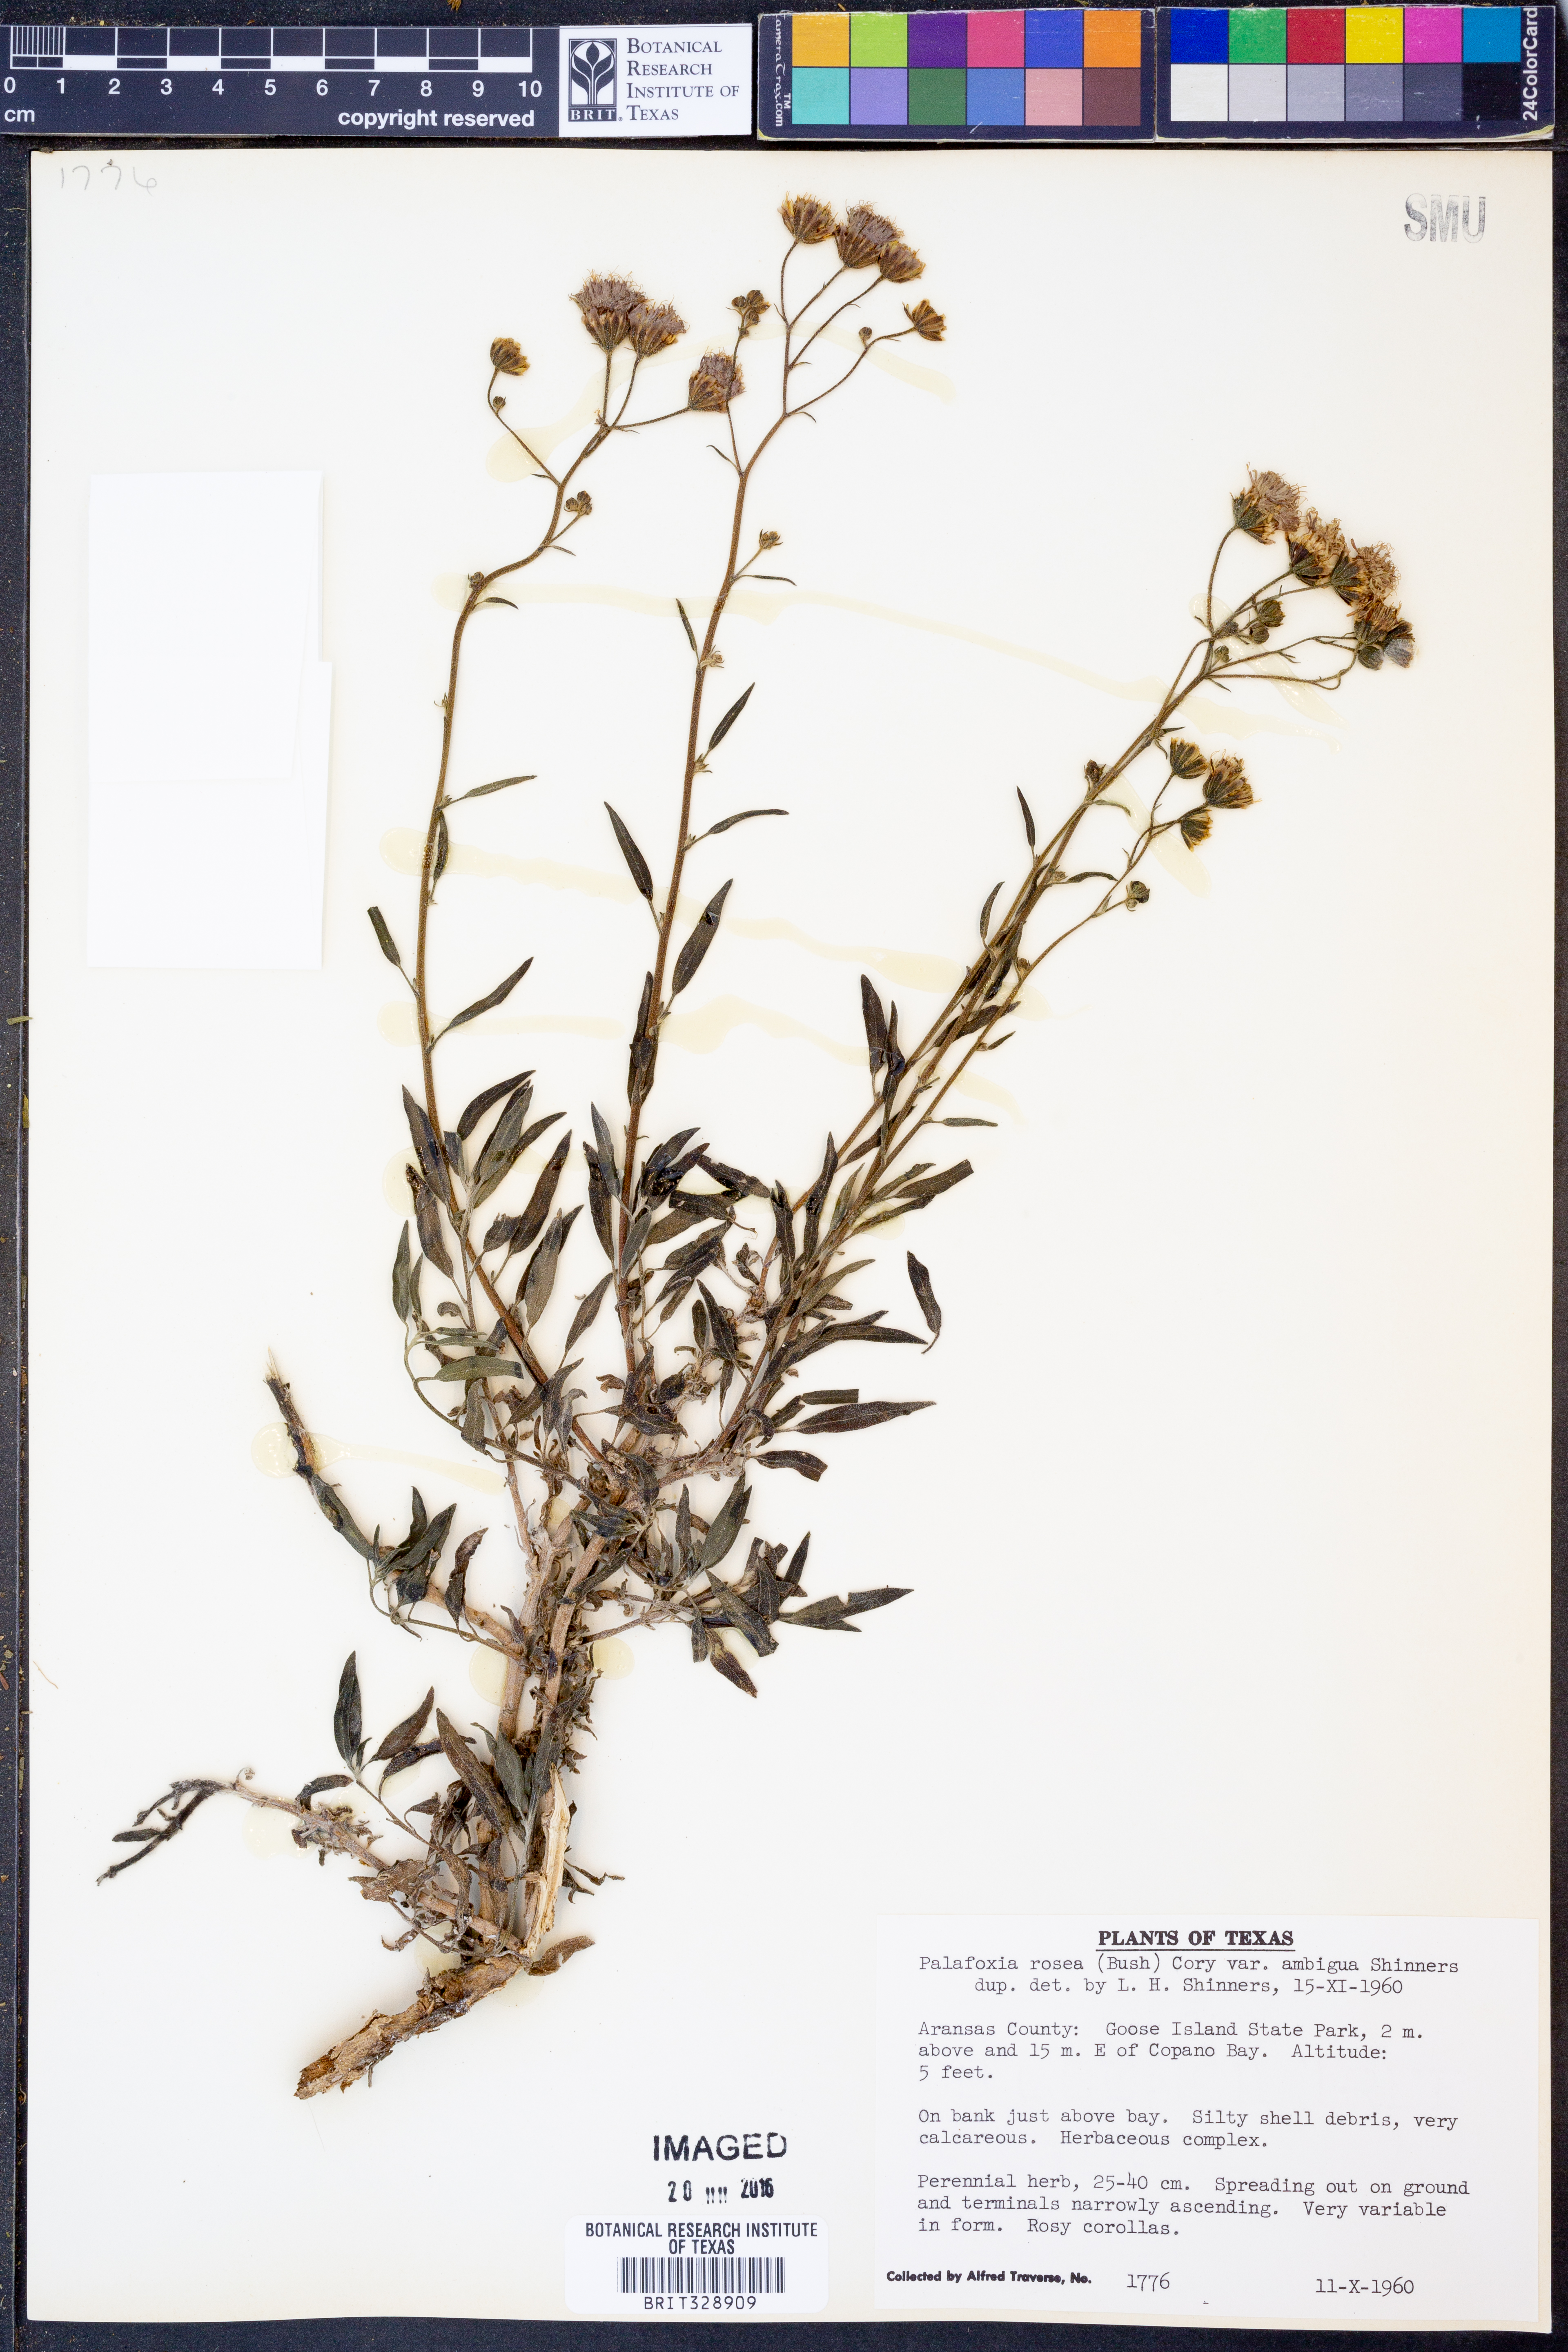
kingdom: Plantae
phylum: Tracheophyta
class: Magnoliopsida
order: Asterales
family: Asteraceae
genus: Palafoxia
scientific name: Palafoxia texana
